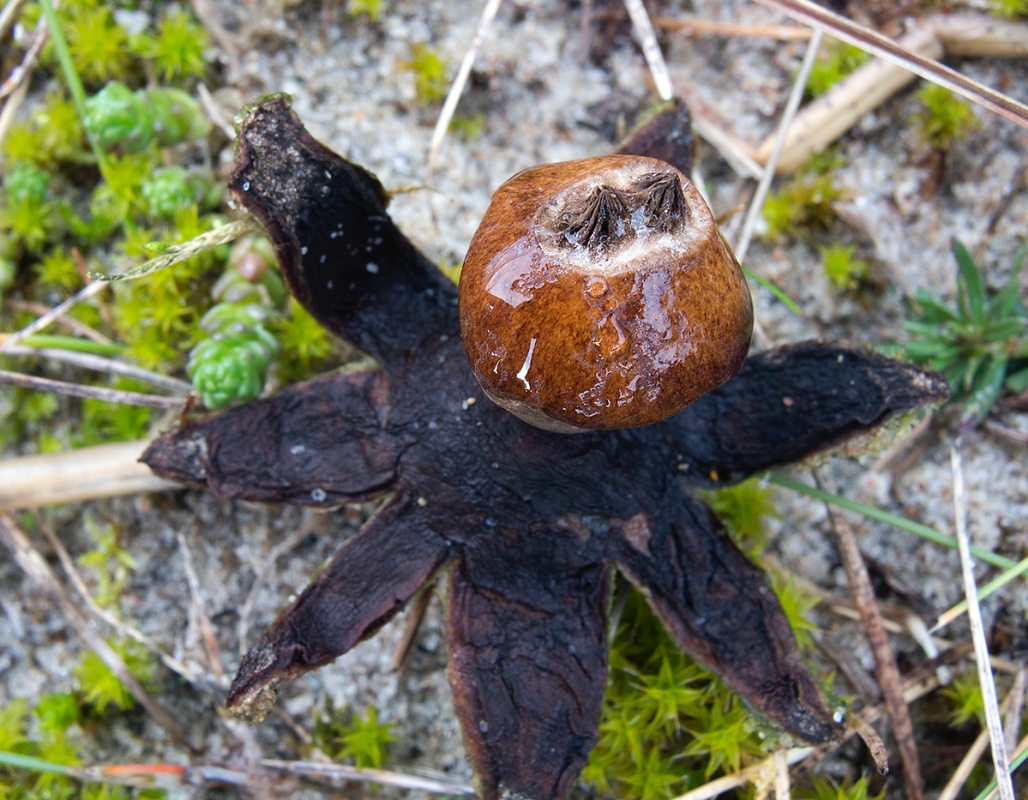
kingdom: Fungi
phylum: Basidiomycota
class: Agaricomycetes
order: Geastrales
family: Geastraceae
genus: Geastrum
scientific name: Geastrum striatum
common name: dværg-stjernebold
